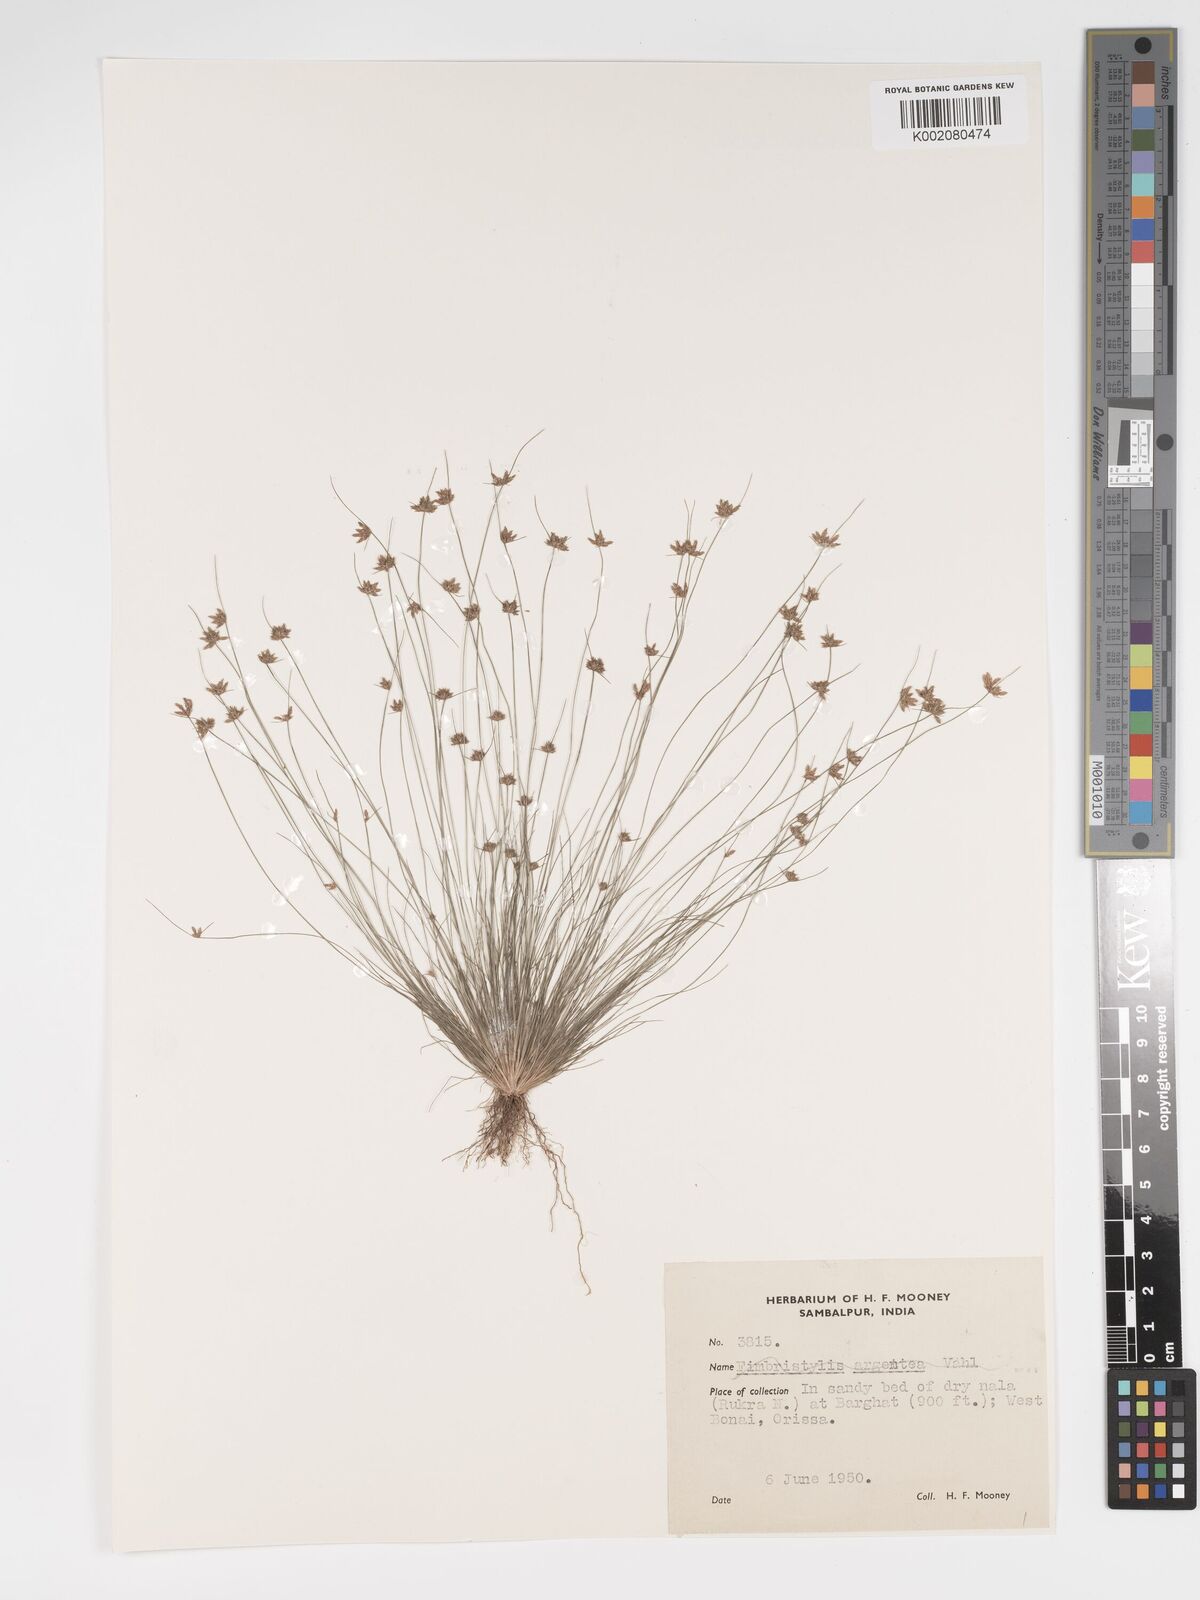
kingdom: Plantae
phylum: Tracheophyta
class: Liliopsida
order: Poales
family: Cyperaceae
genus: Bulbostylis
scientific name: Bulbostylis barbata
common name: Watergrass
